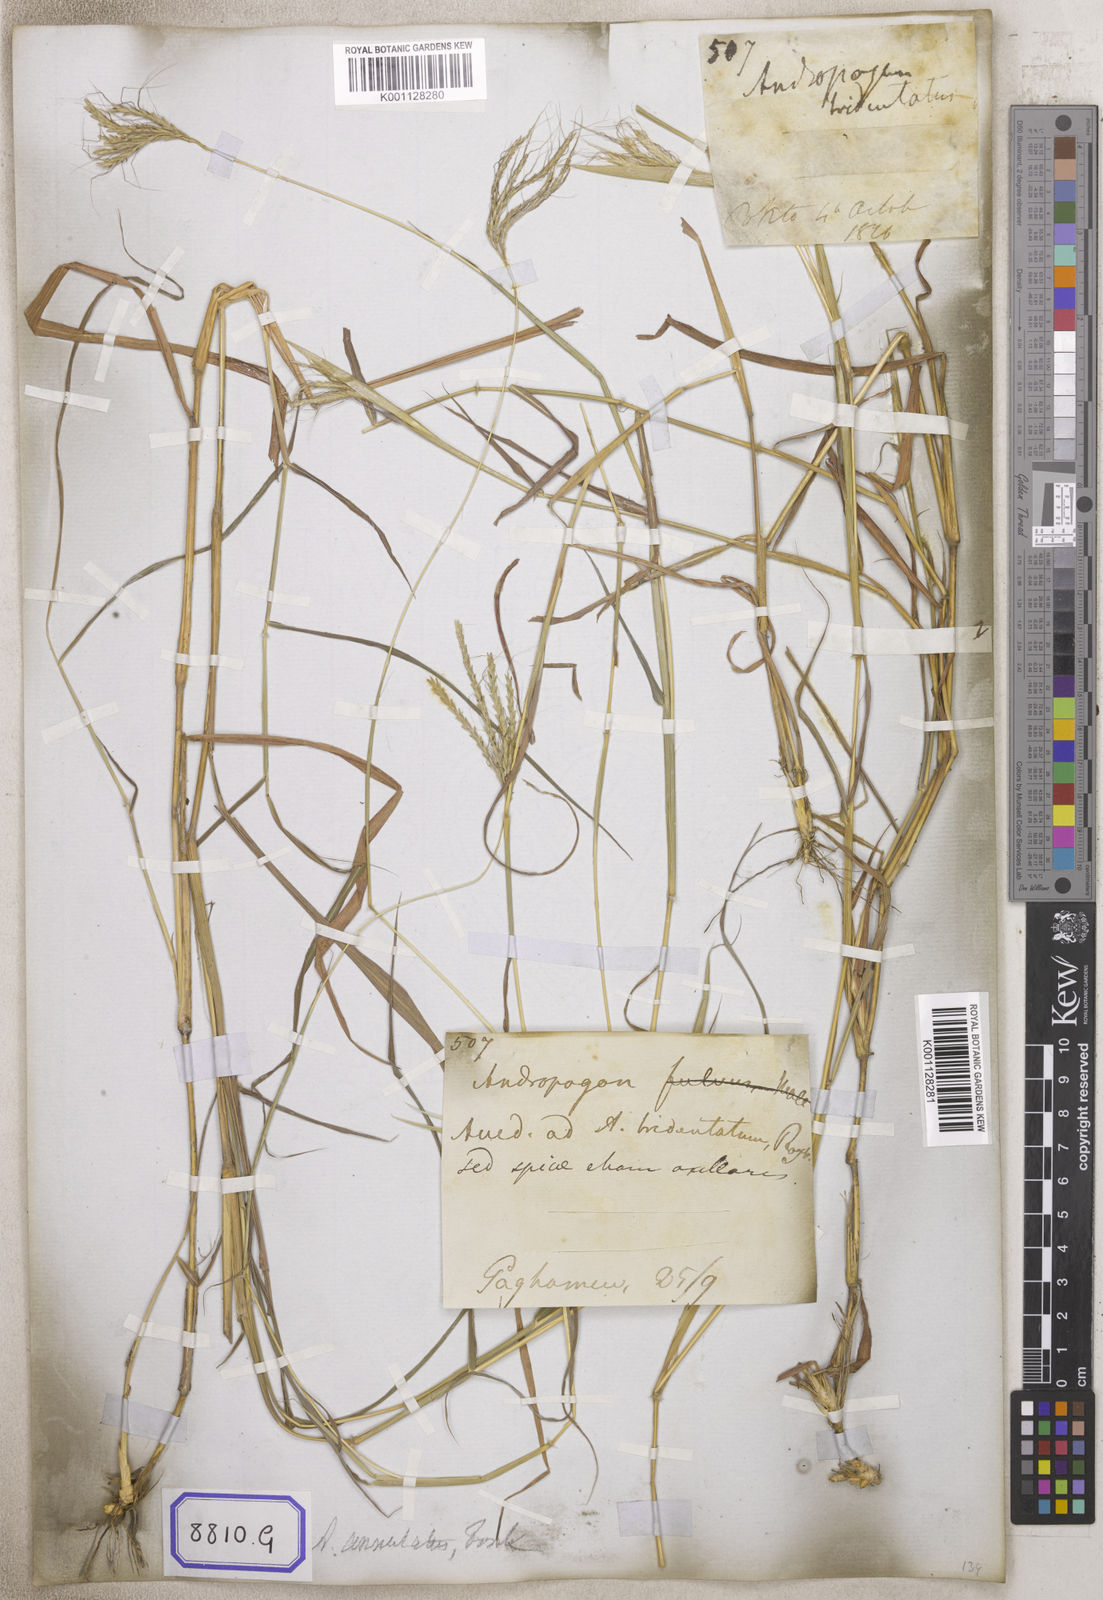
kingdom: Plantae
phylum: Tracheophyta
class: Liliopsida
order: Poales
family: Poaceae
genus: Andropogon
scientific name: Andropogon
